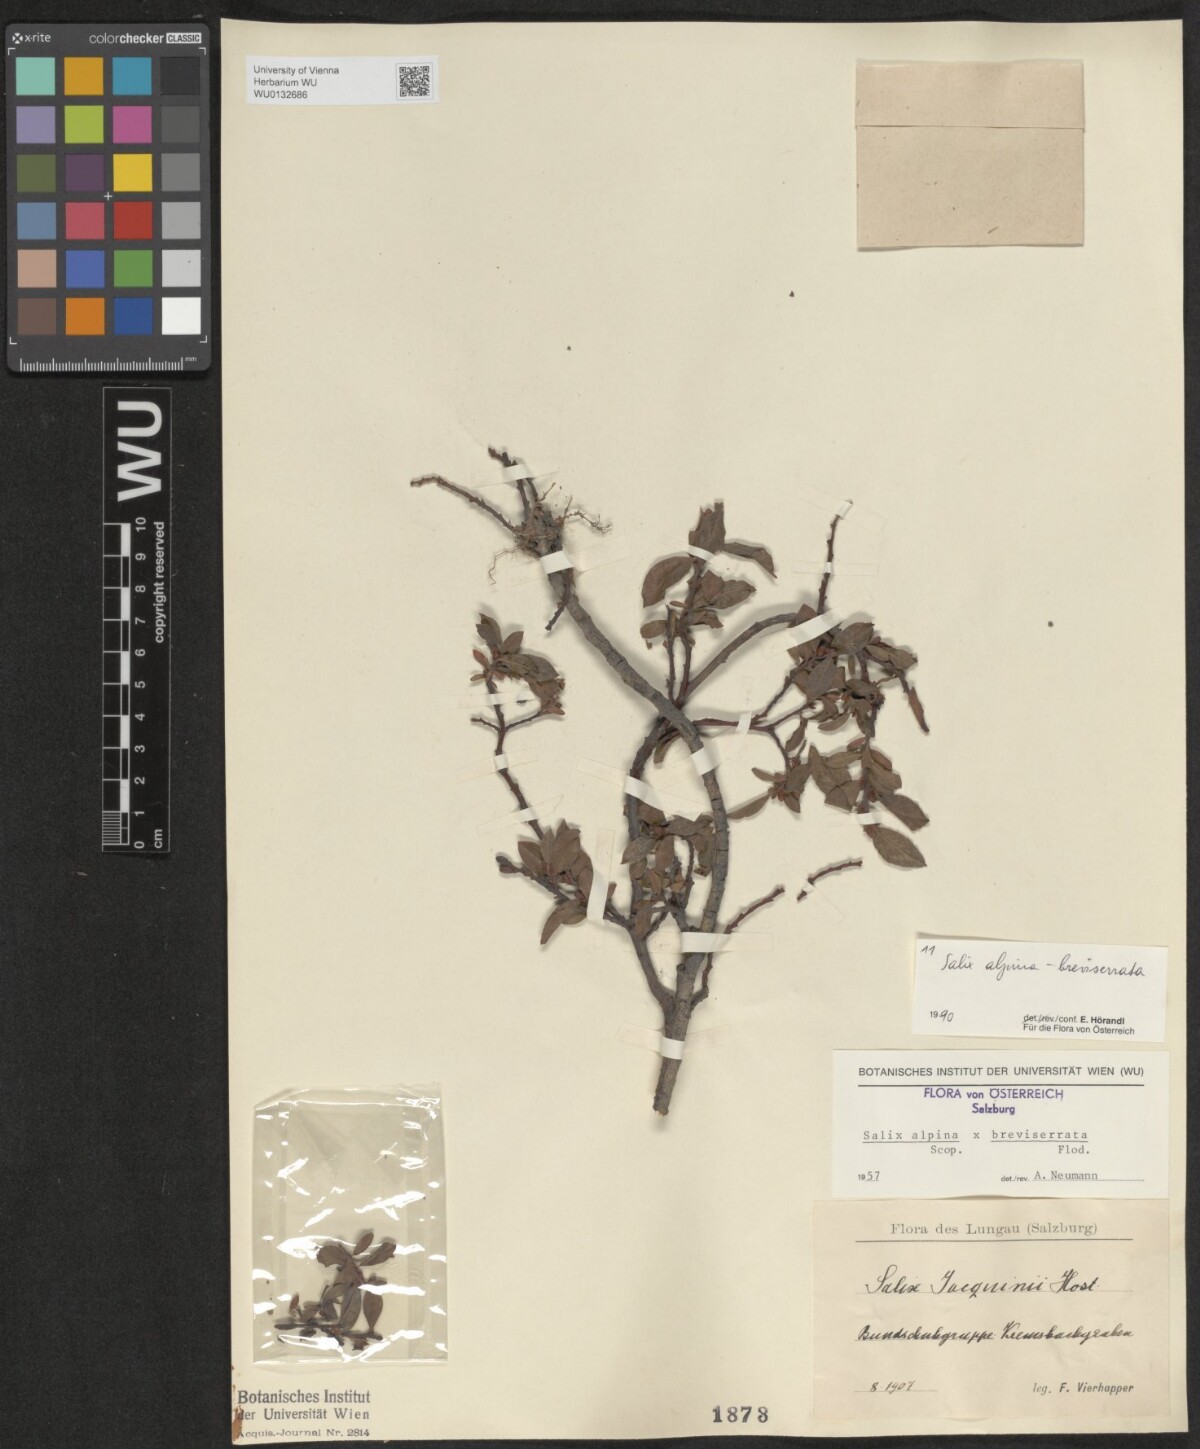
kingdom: Plantae
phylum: Tracheophyta
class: Magnoliopsida
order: Malpighiales
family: Salicaceae
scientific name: Salicaceae
